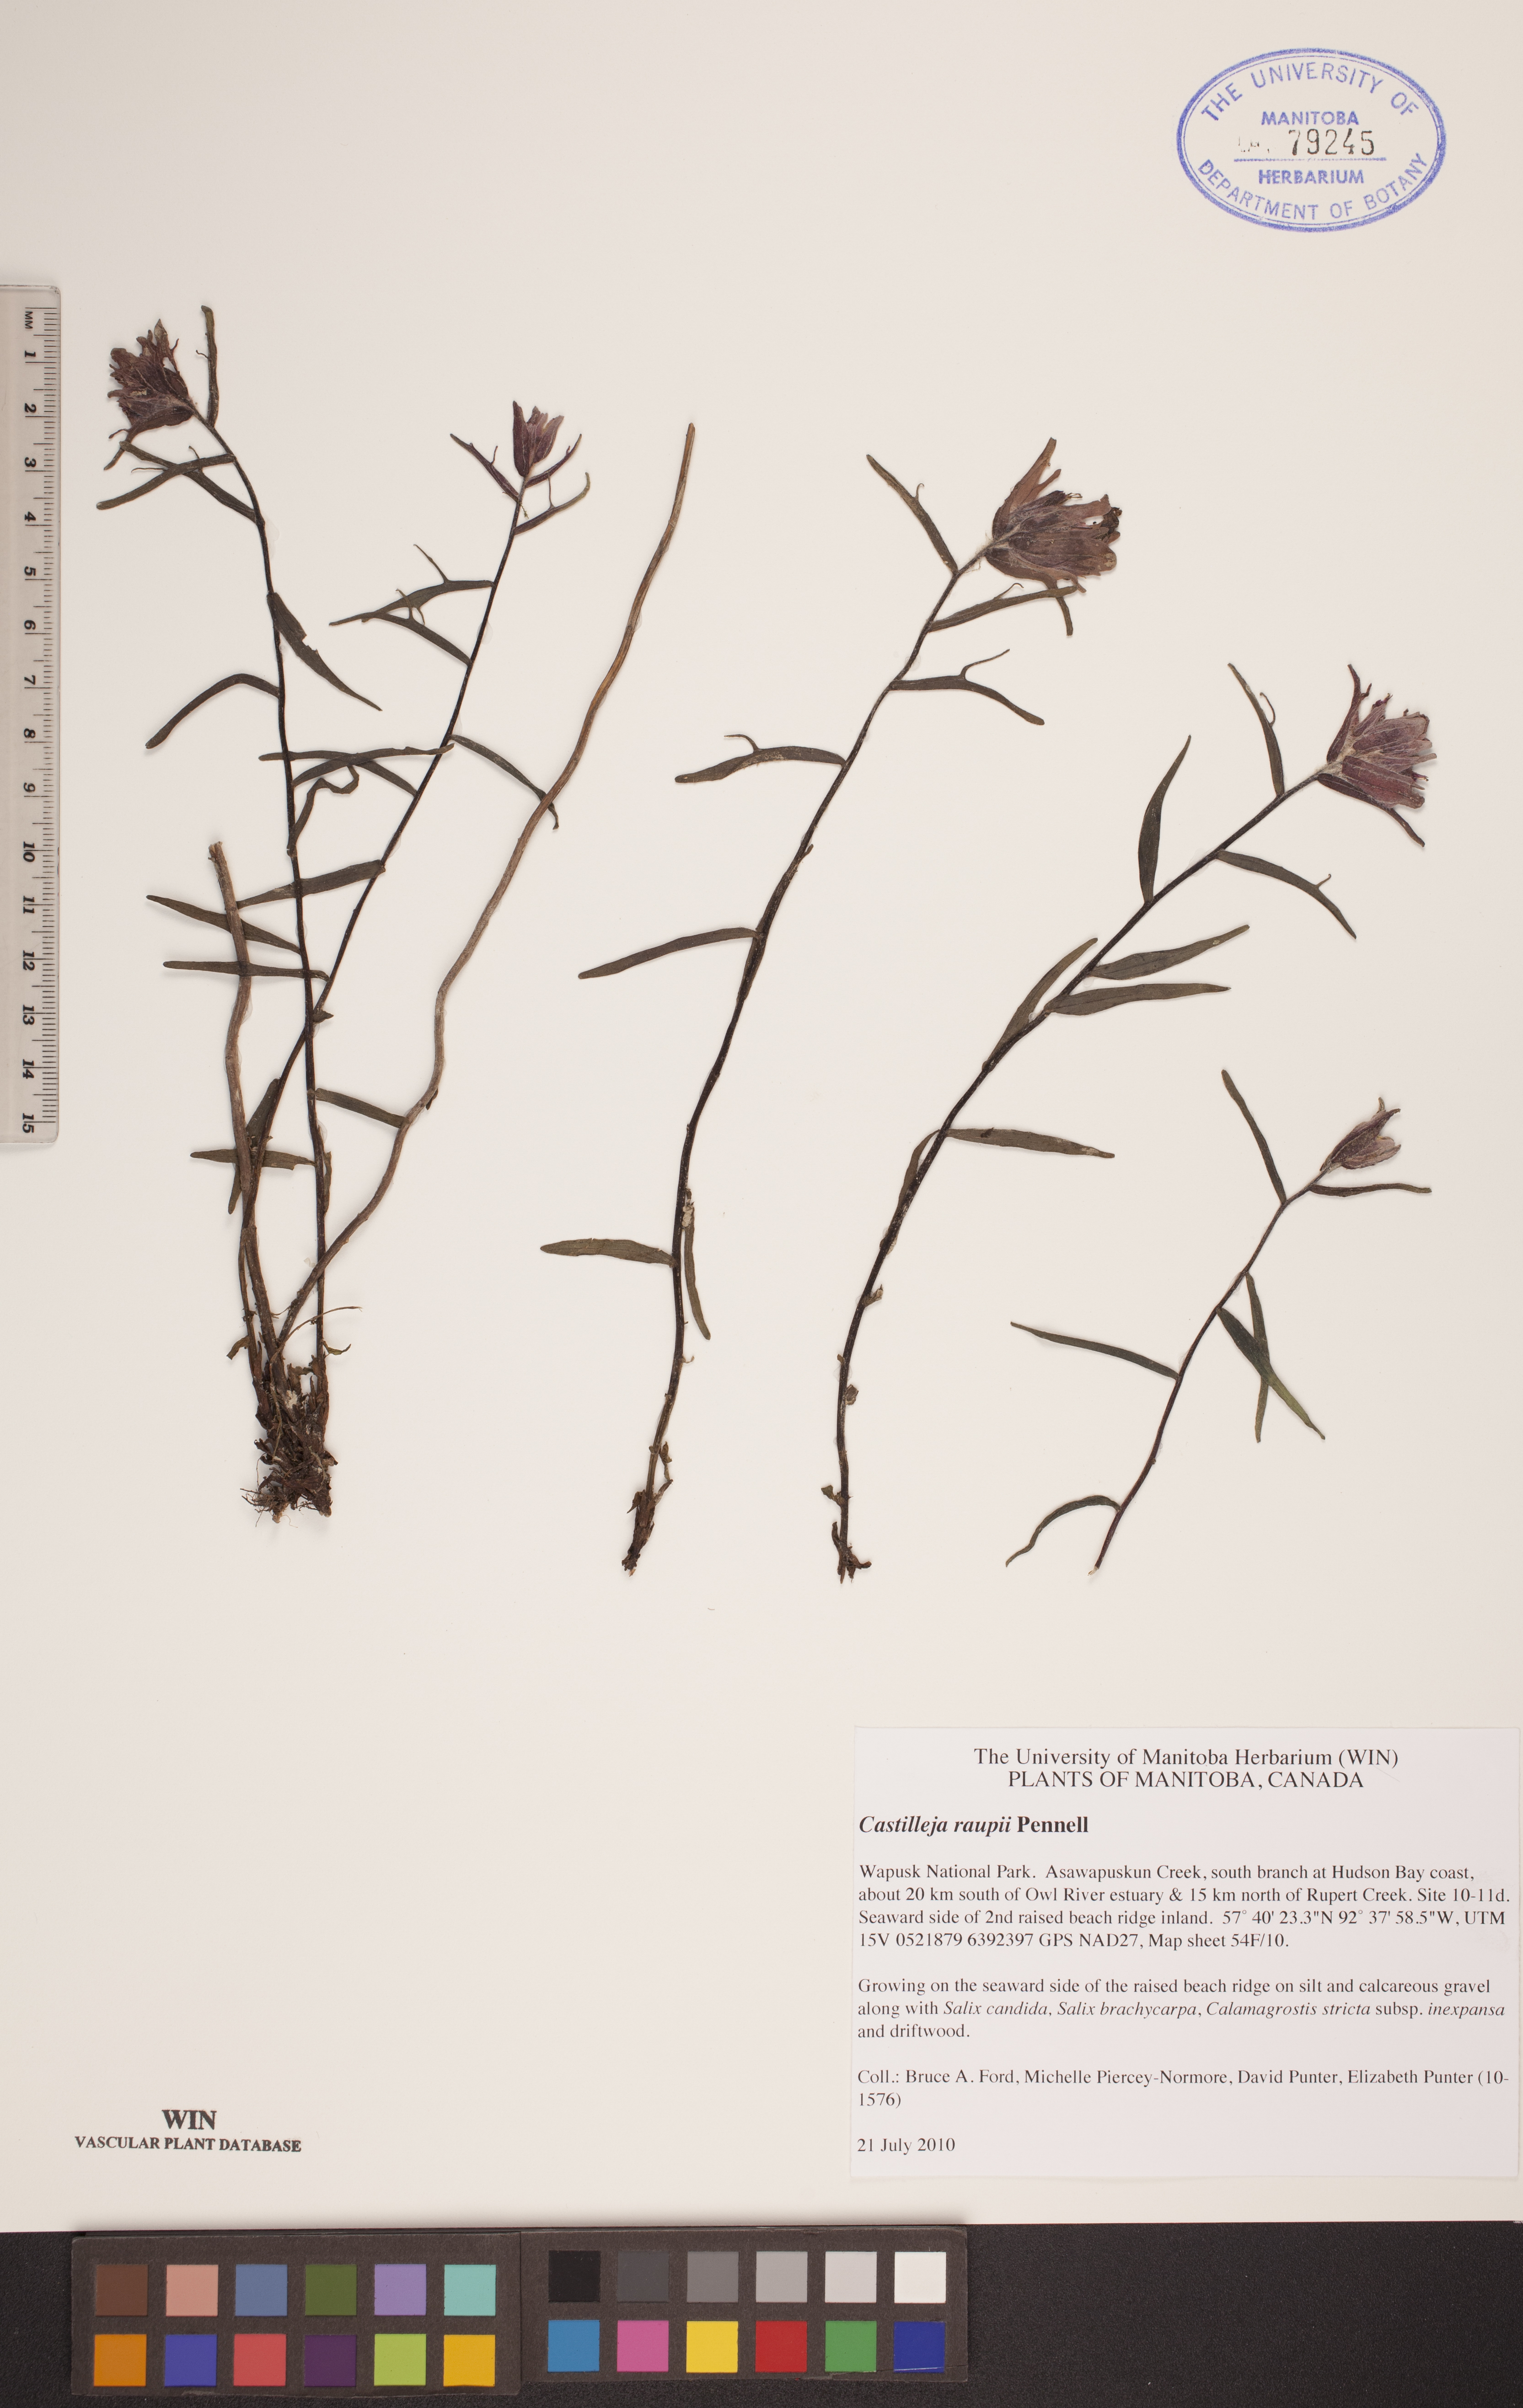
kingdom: Plantae
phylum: Tracheophyta
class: Magnoliopsida
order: Lamiales
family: Orobanchaceae
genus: Castilleja
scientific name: Castilleja raupii
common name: Raup's paintbrush
